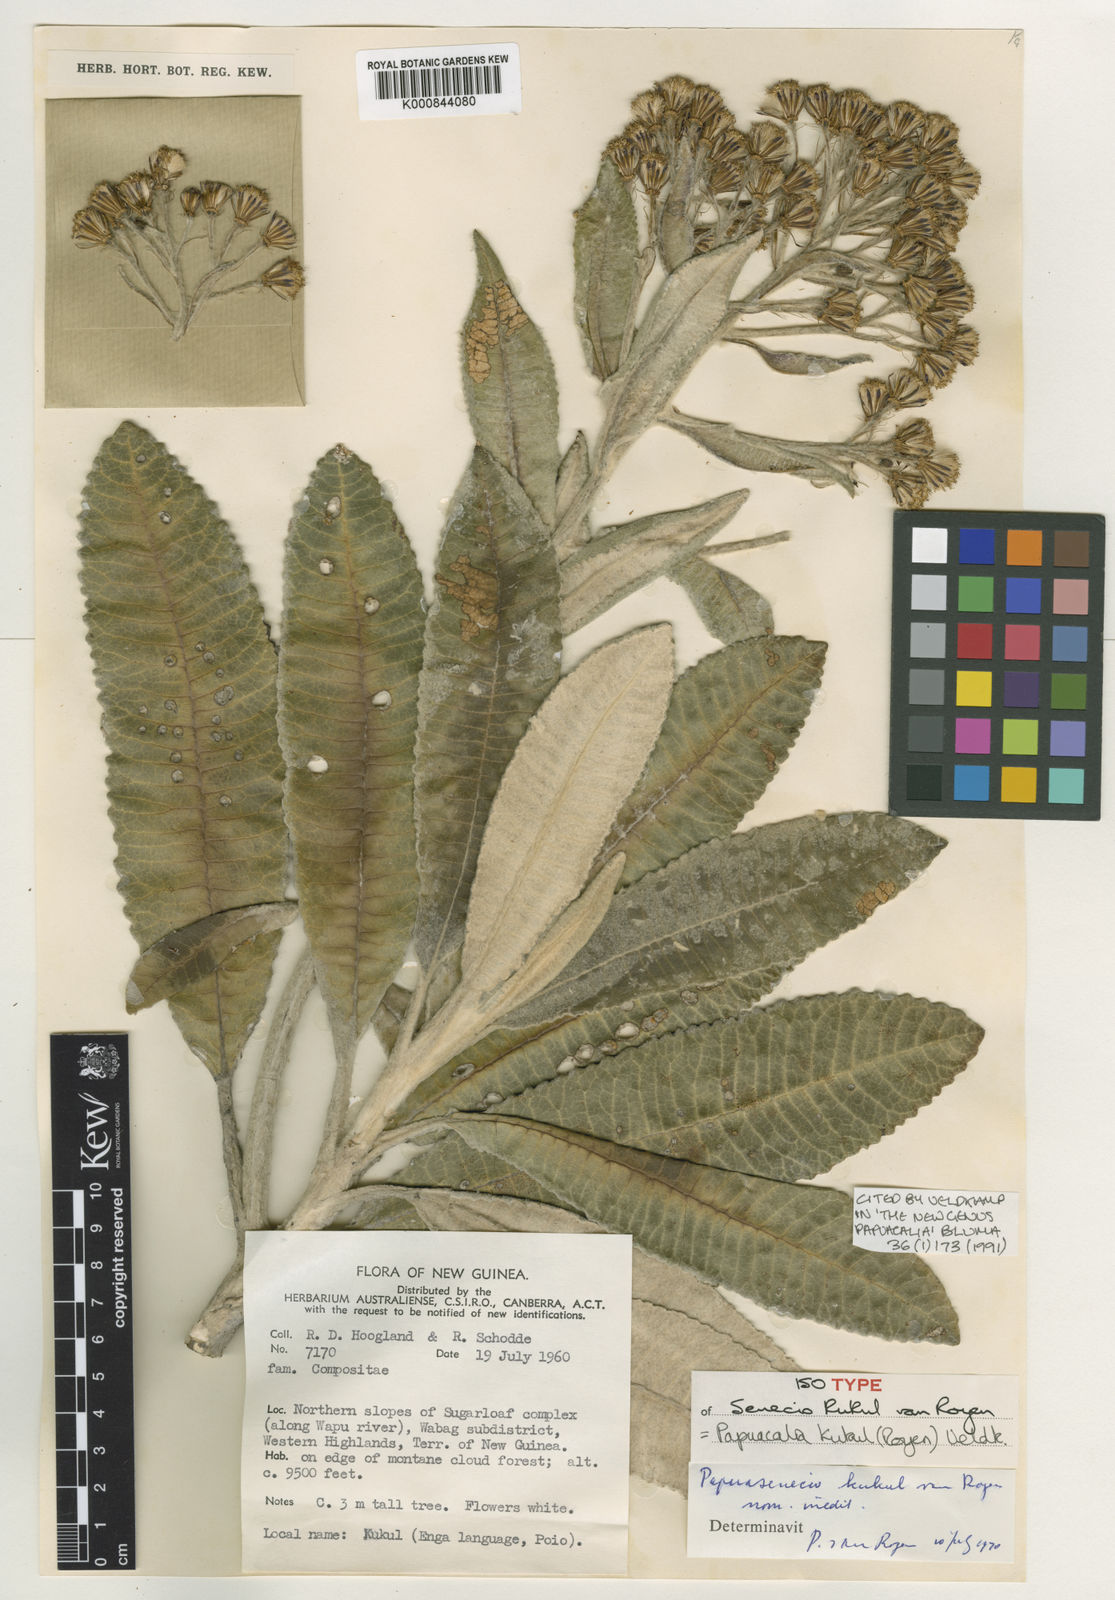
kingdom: Plantae
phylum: Tracheophyta
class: Magnoliopsida
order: Asterales
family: Asteraceae
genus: Papuacalia
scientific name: Papuacalia kukul
